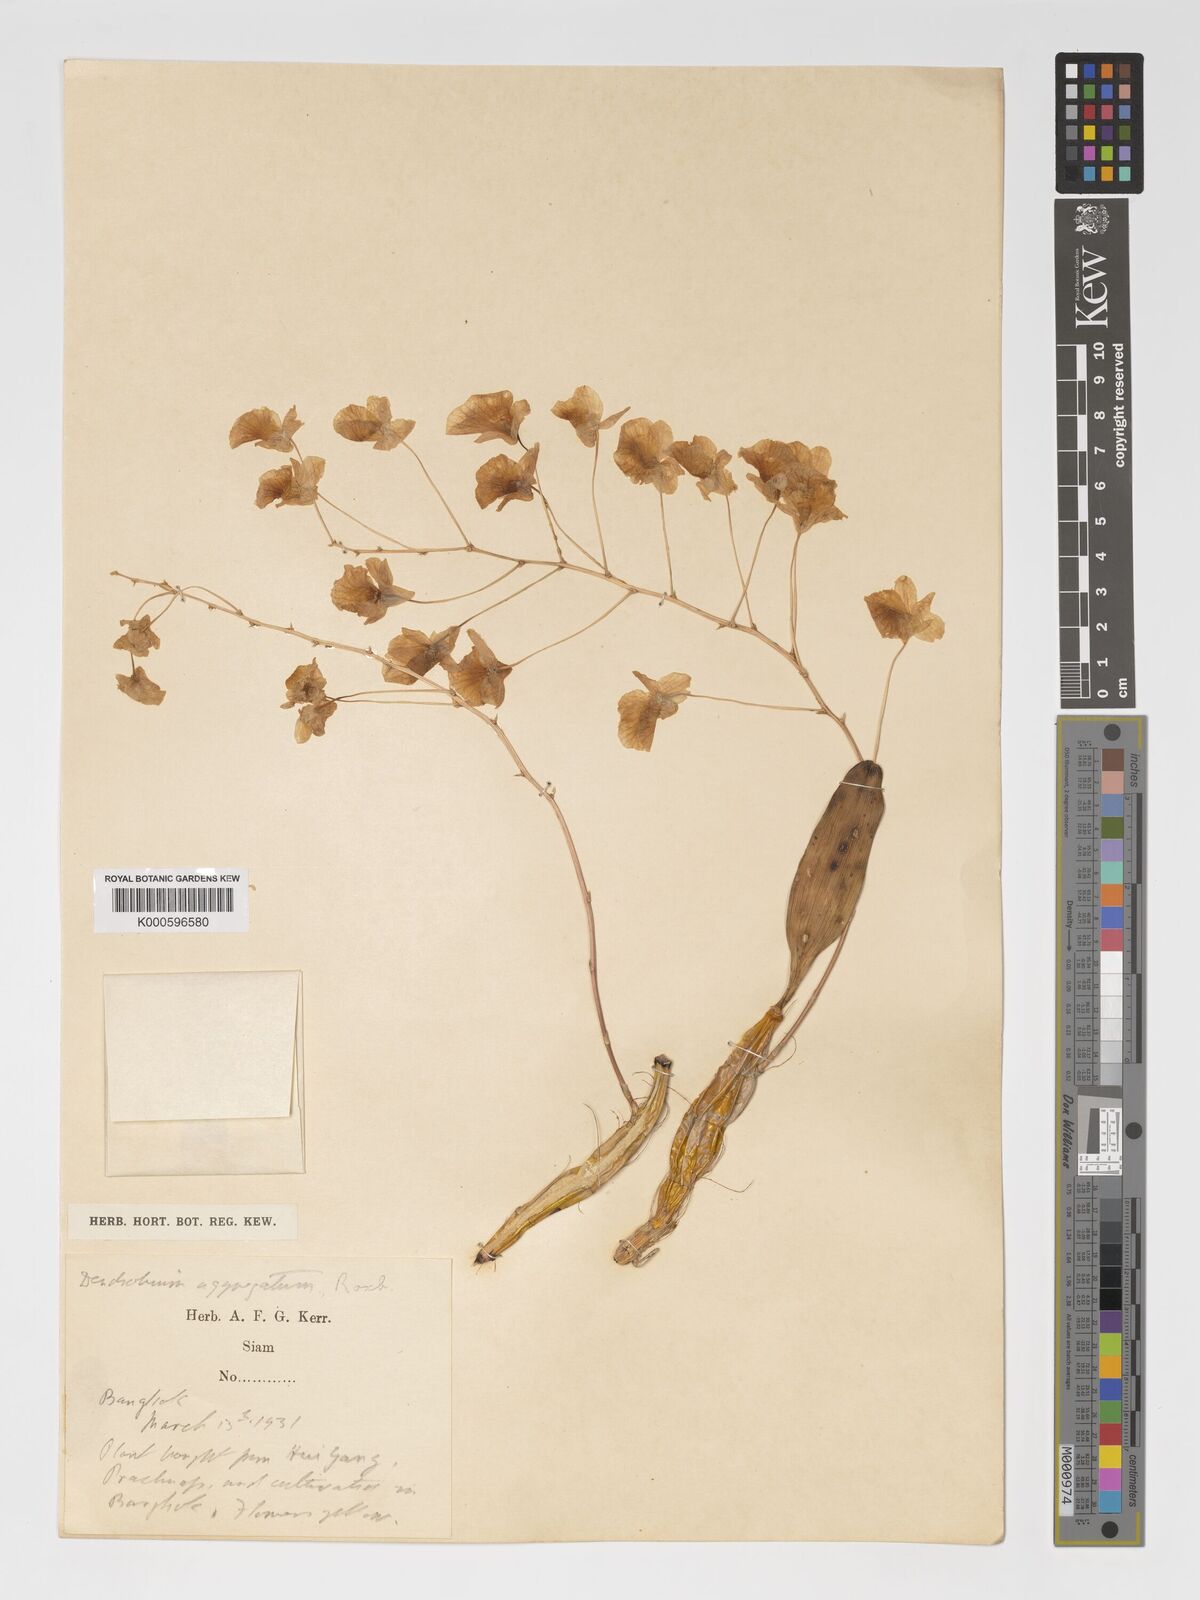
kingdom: Plantae
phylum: Tracheophyta
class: Liliopsida
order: Asparagales
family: Orchidaceae
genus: Dendrobium
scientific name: Dendrobium lindleyi
